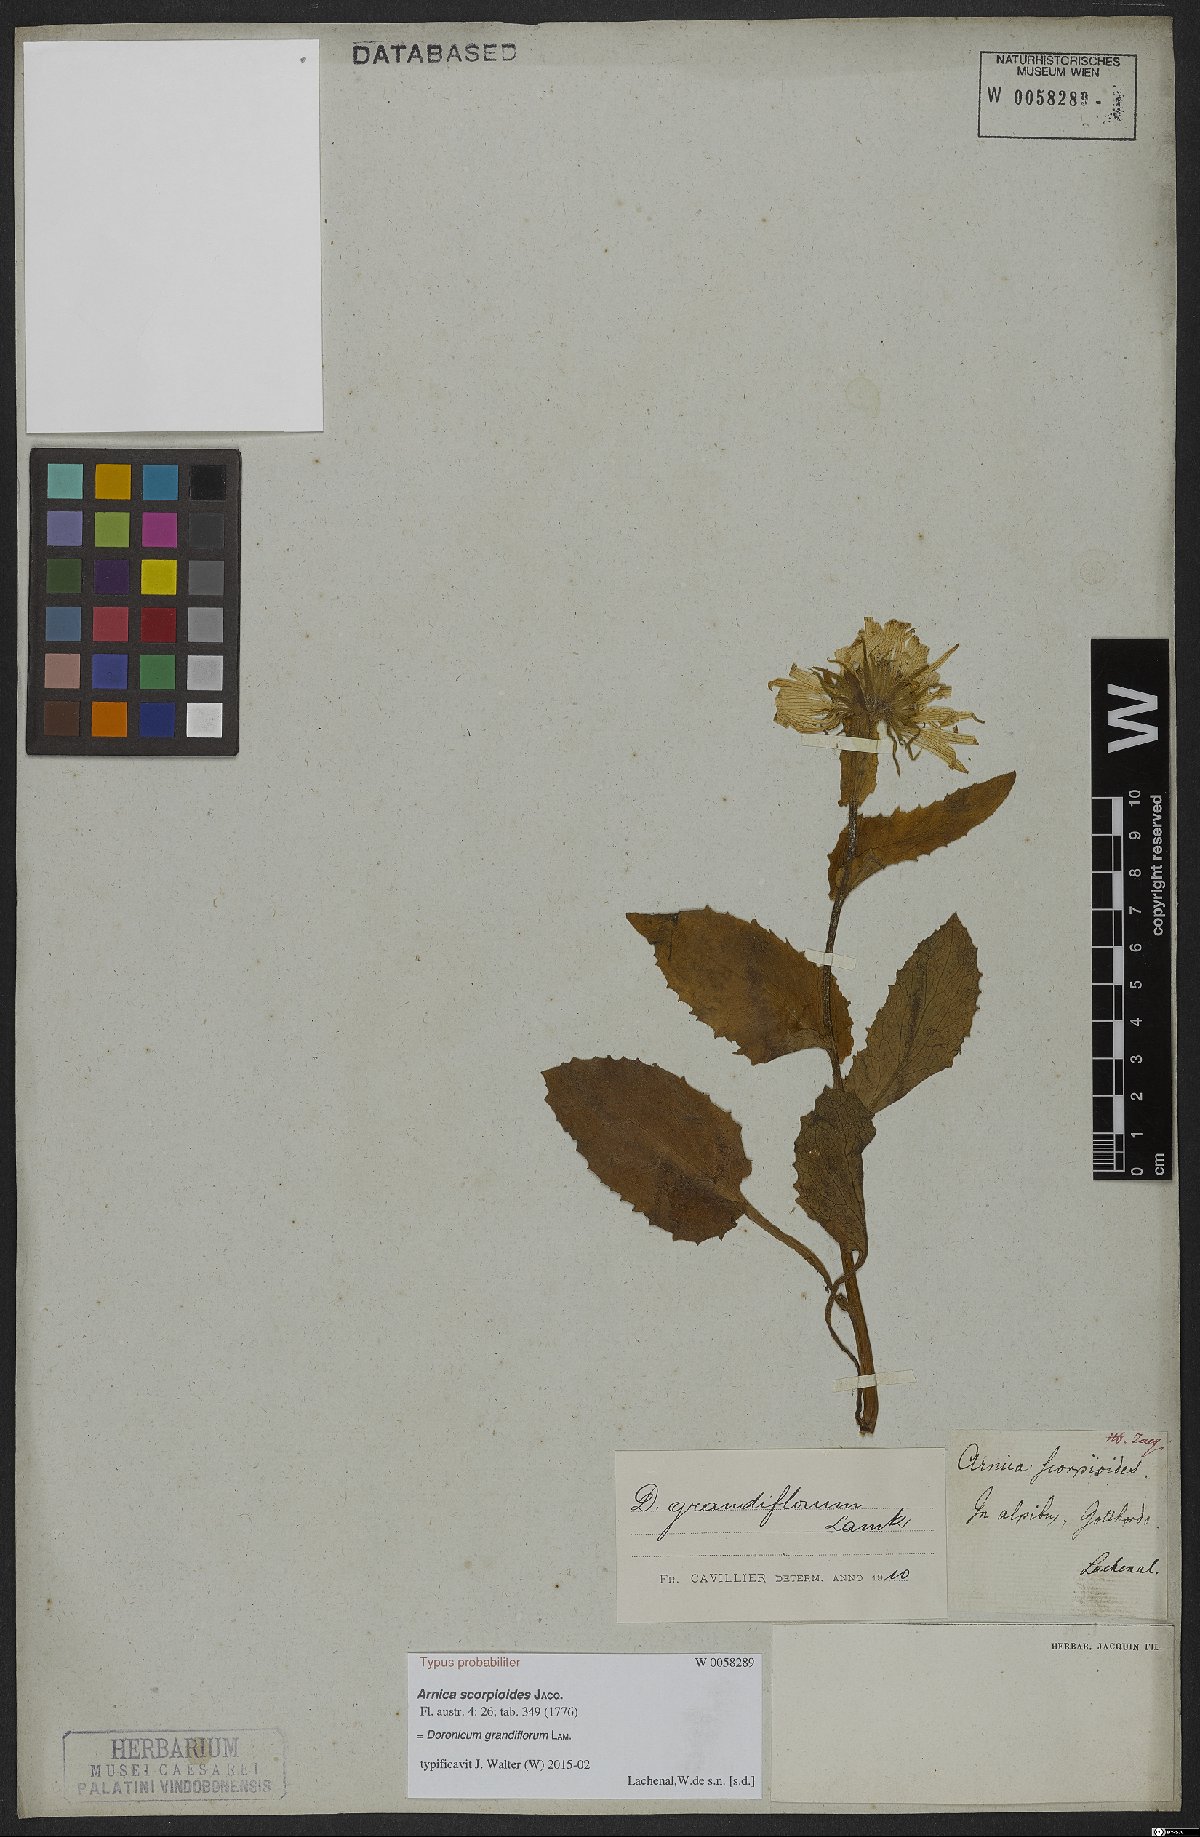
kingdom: Plantae
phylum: Tracheophyta
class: Magnoliopsida
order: Asterales
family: Asteraceae
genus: Doronicum
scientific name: Doronicum grandiflorum
